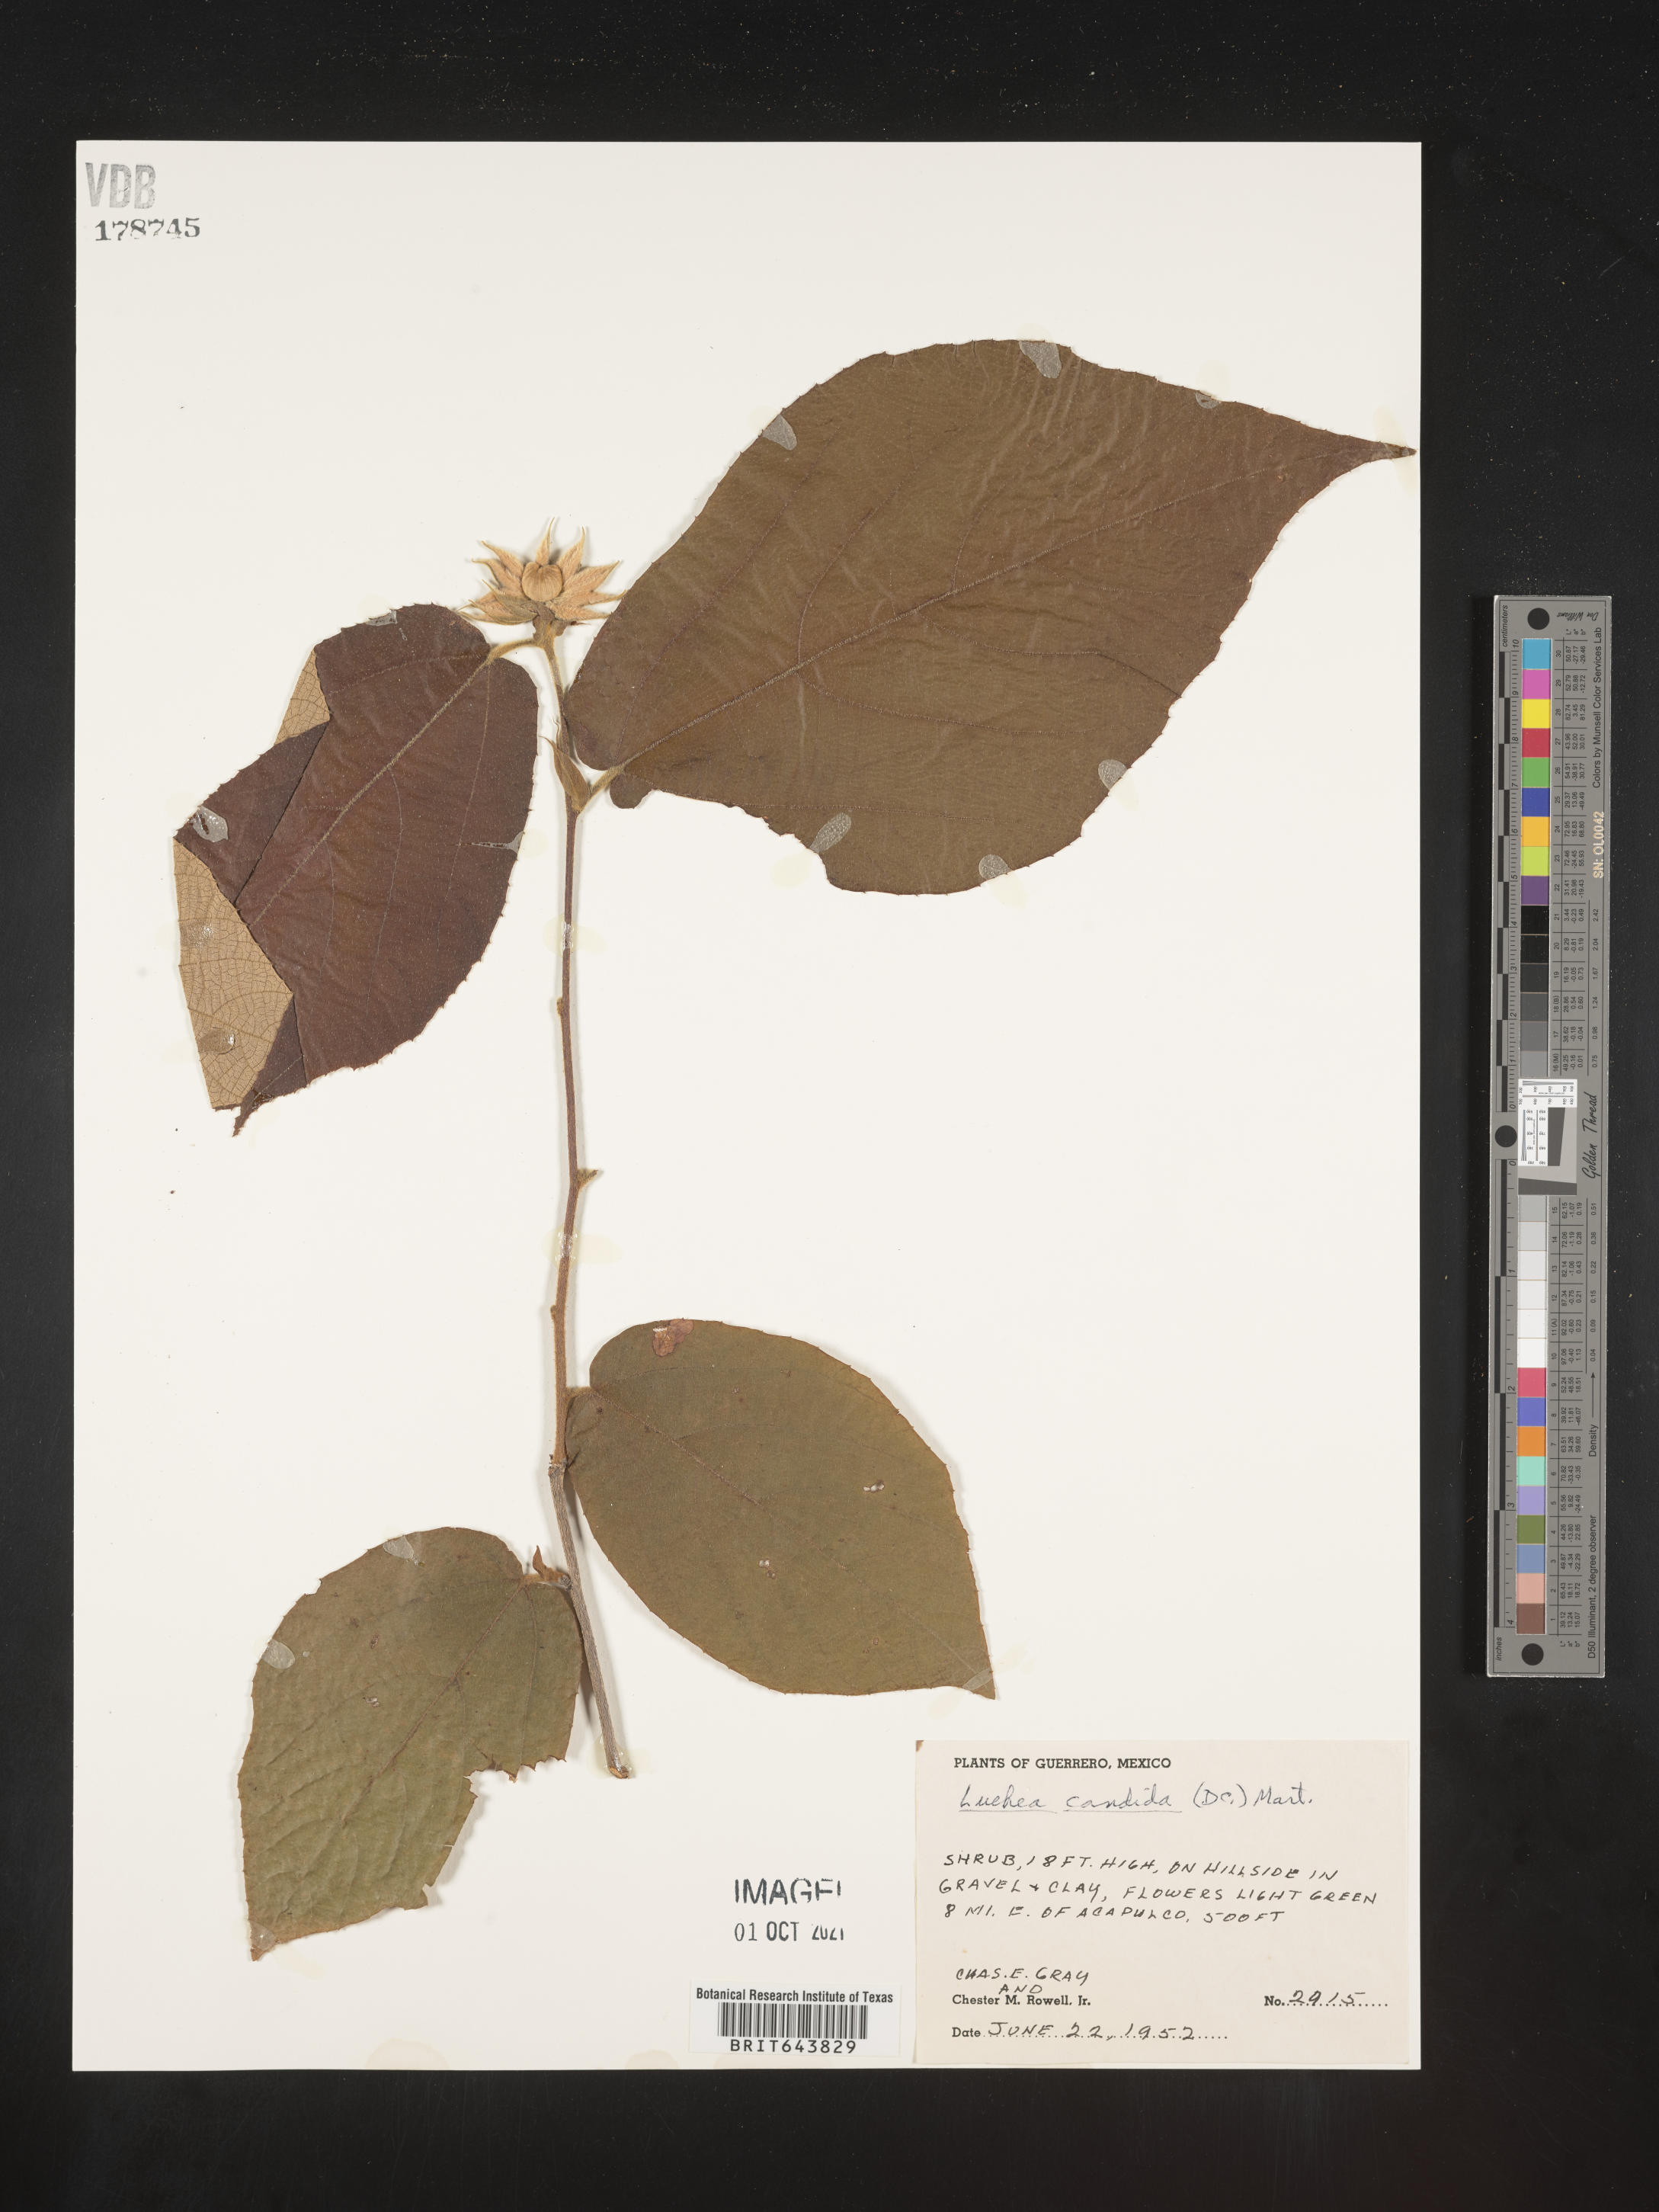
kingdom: Plantae
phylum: Tracheophyta
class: Magnoliopsida
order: Malvales
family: Malvaceae
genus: Luehea
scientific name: Luehea
